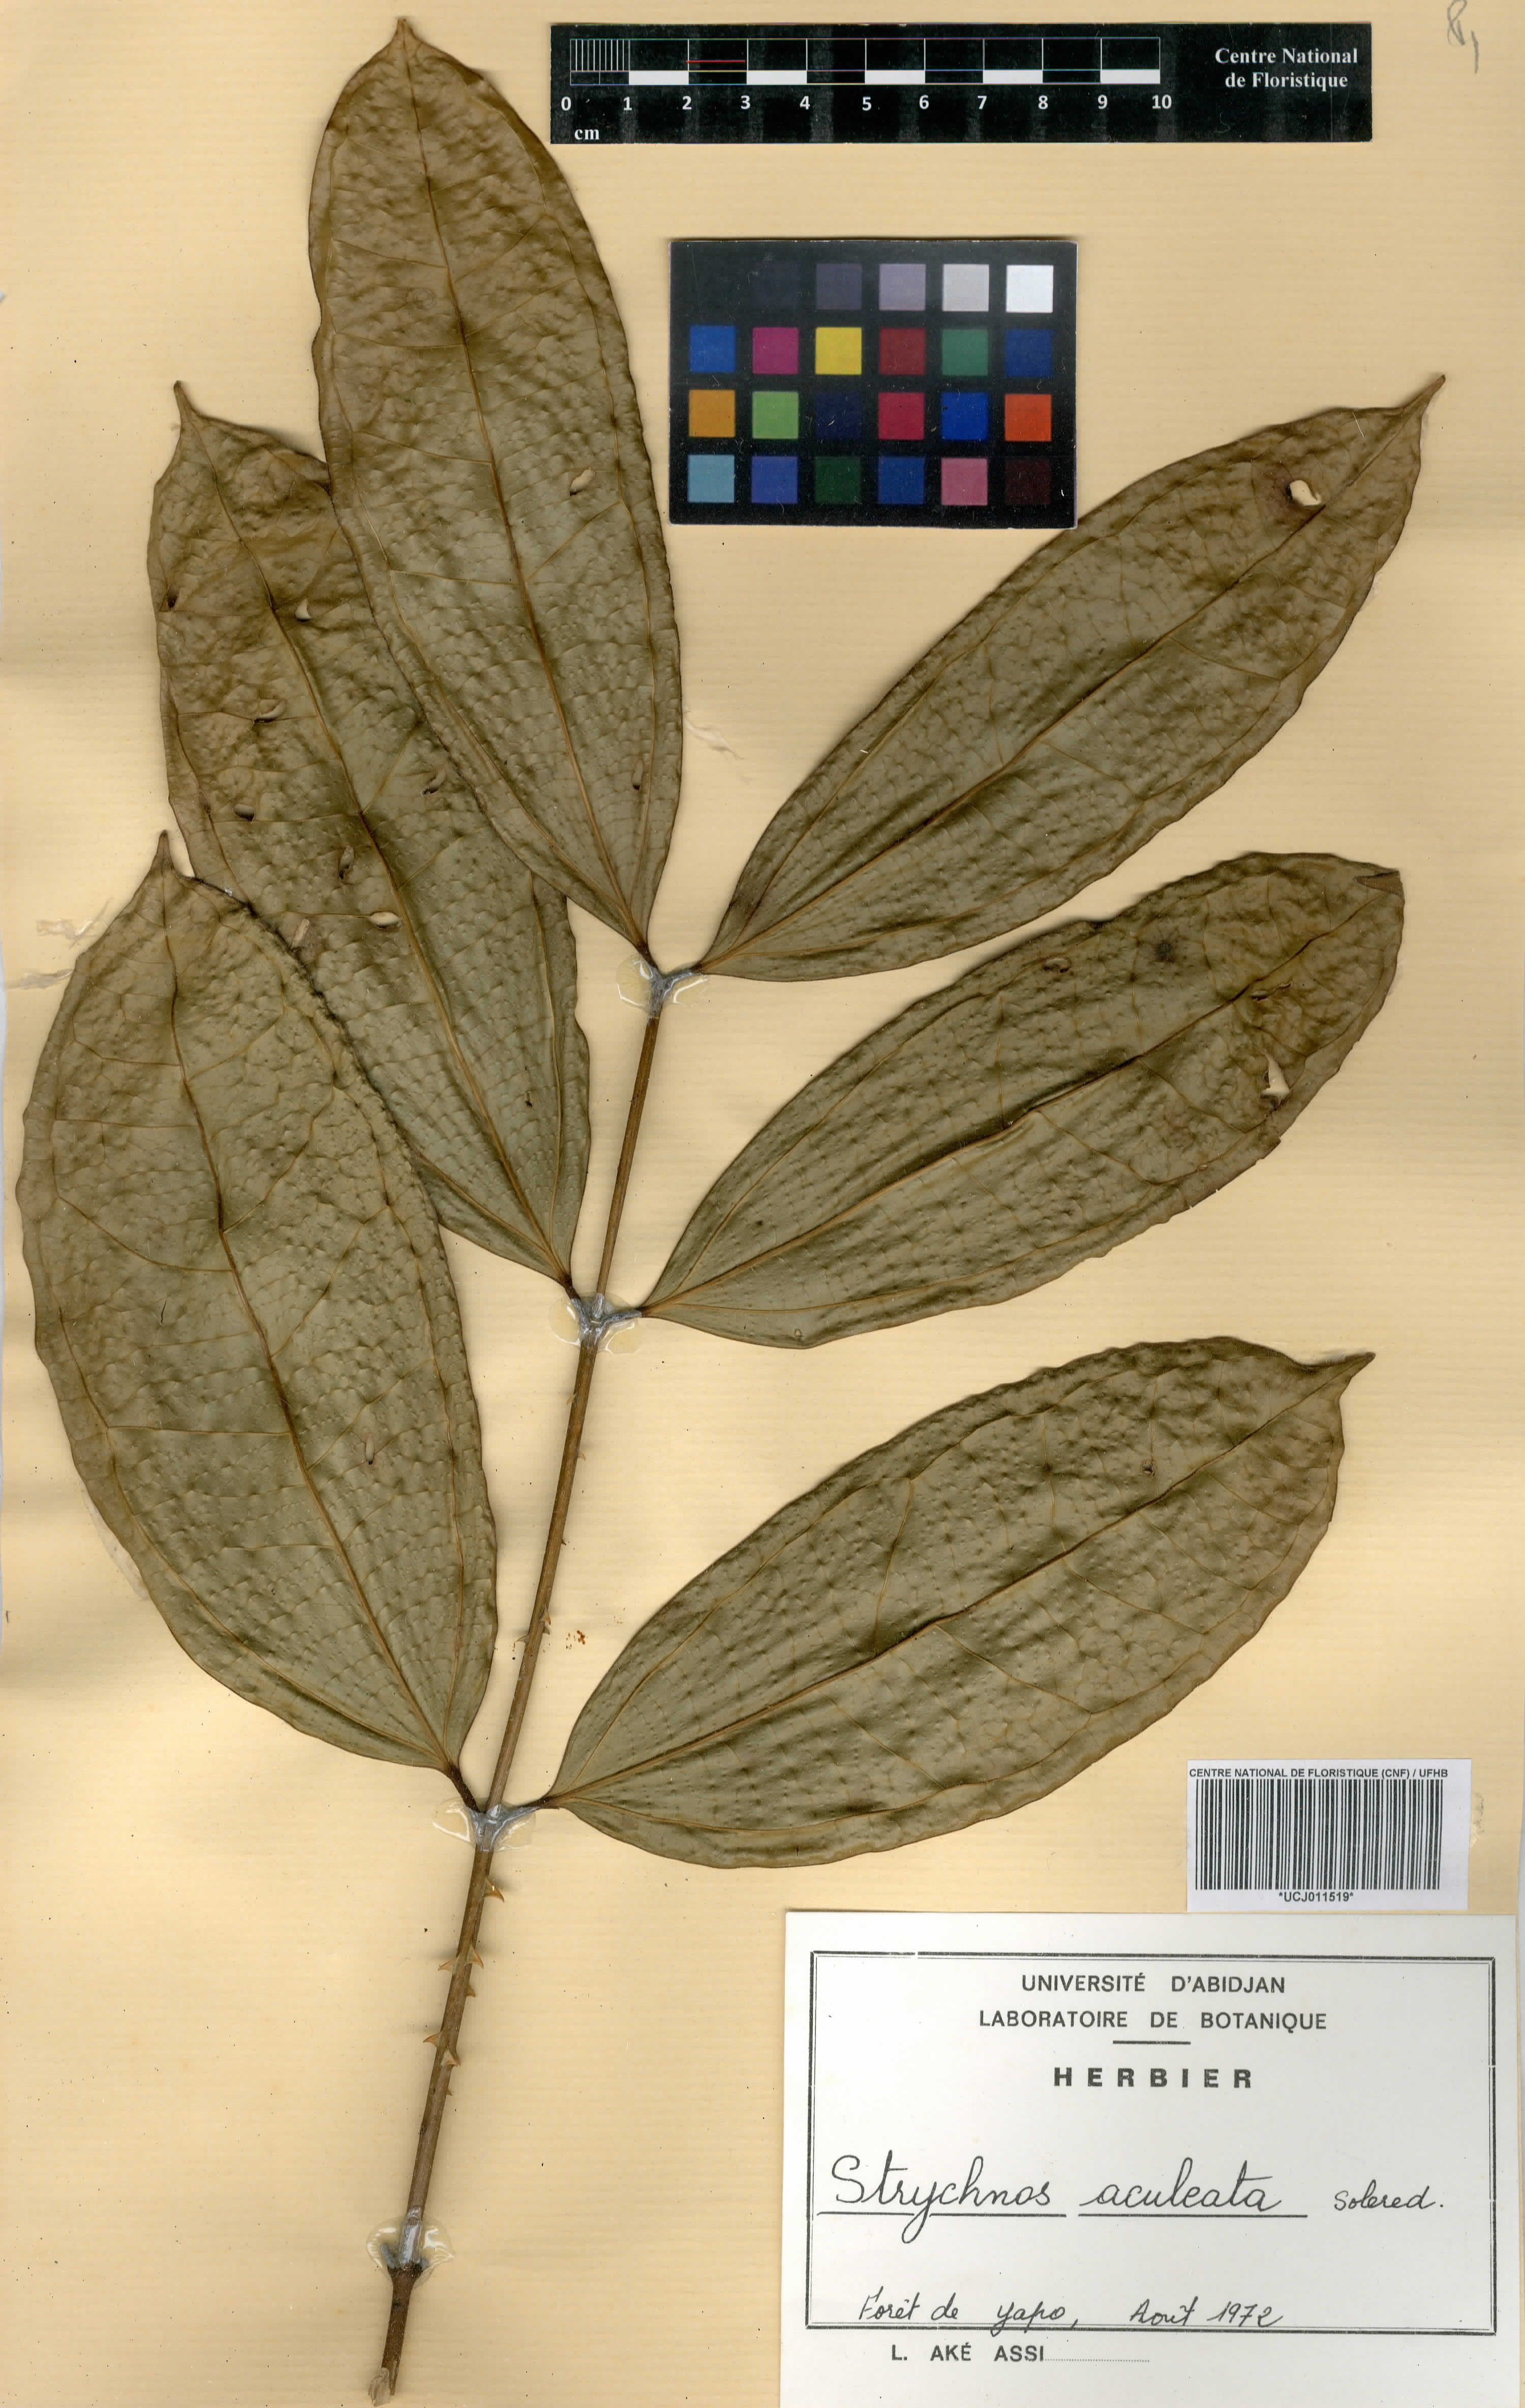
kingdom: Plantae
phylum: Tracheophyta
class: Magnoliopsida
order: Gentianales
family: Loganiaceae
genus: Strychnos
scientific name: Strychnos aculeata
